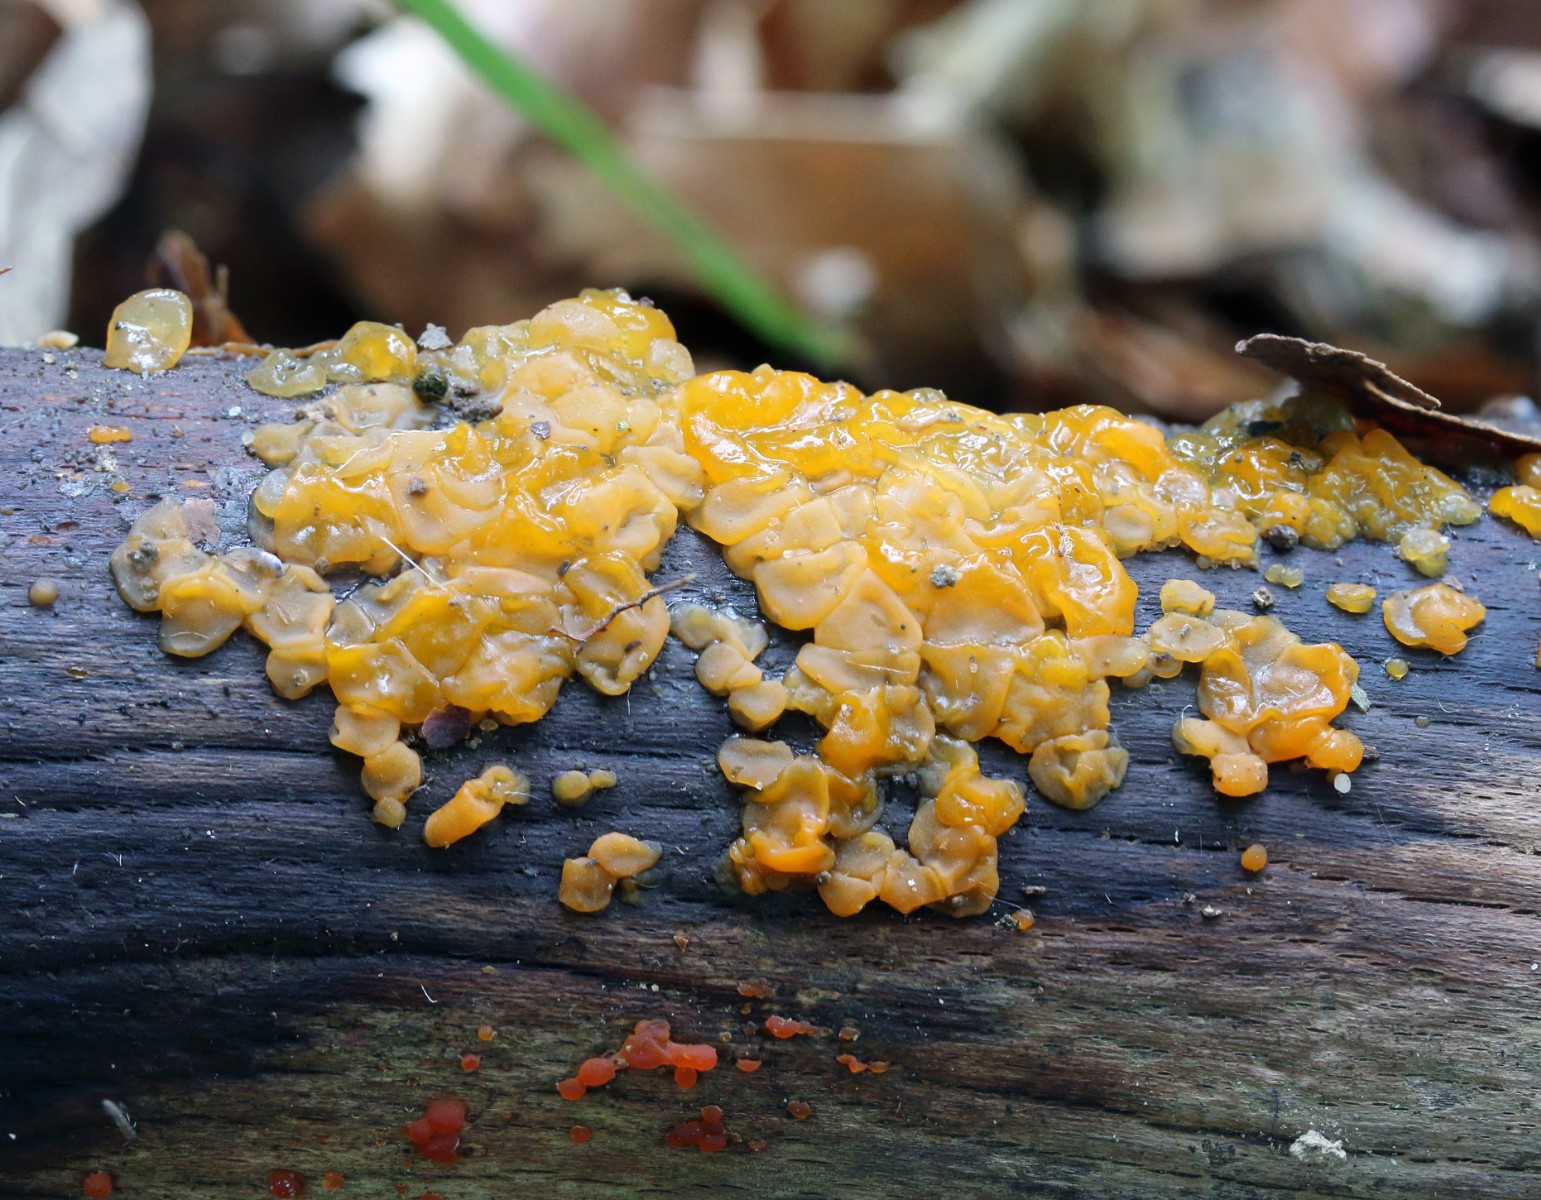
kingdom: Fungi
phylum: Basidiomycota
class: Dacrymycetes
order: Dacrymycetales
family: Dacrymycetaceae
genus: Dacrymyces
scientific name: Dacrymyces stillatus
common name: almindelig tåresvamp
